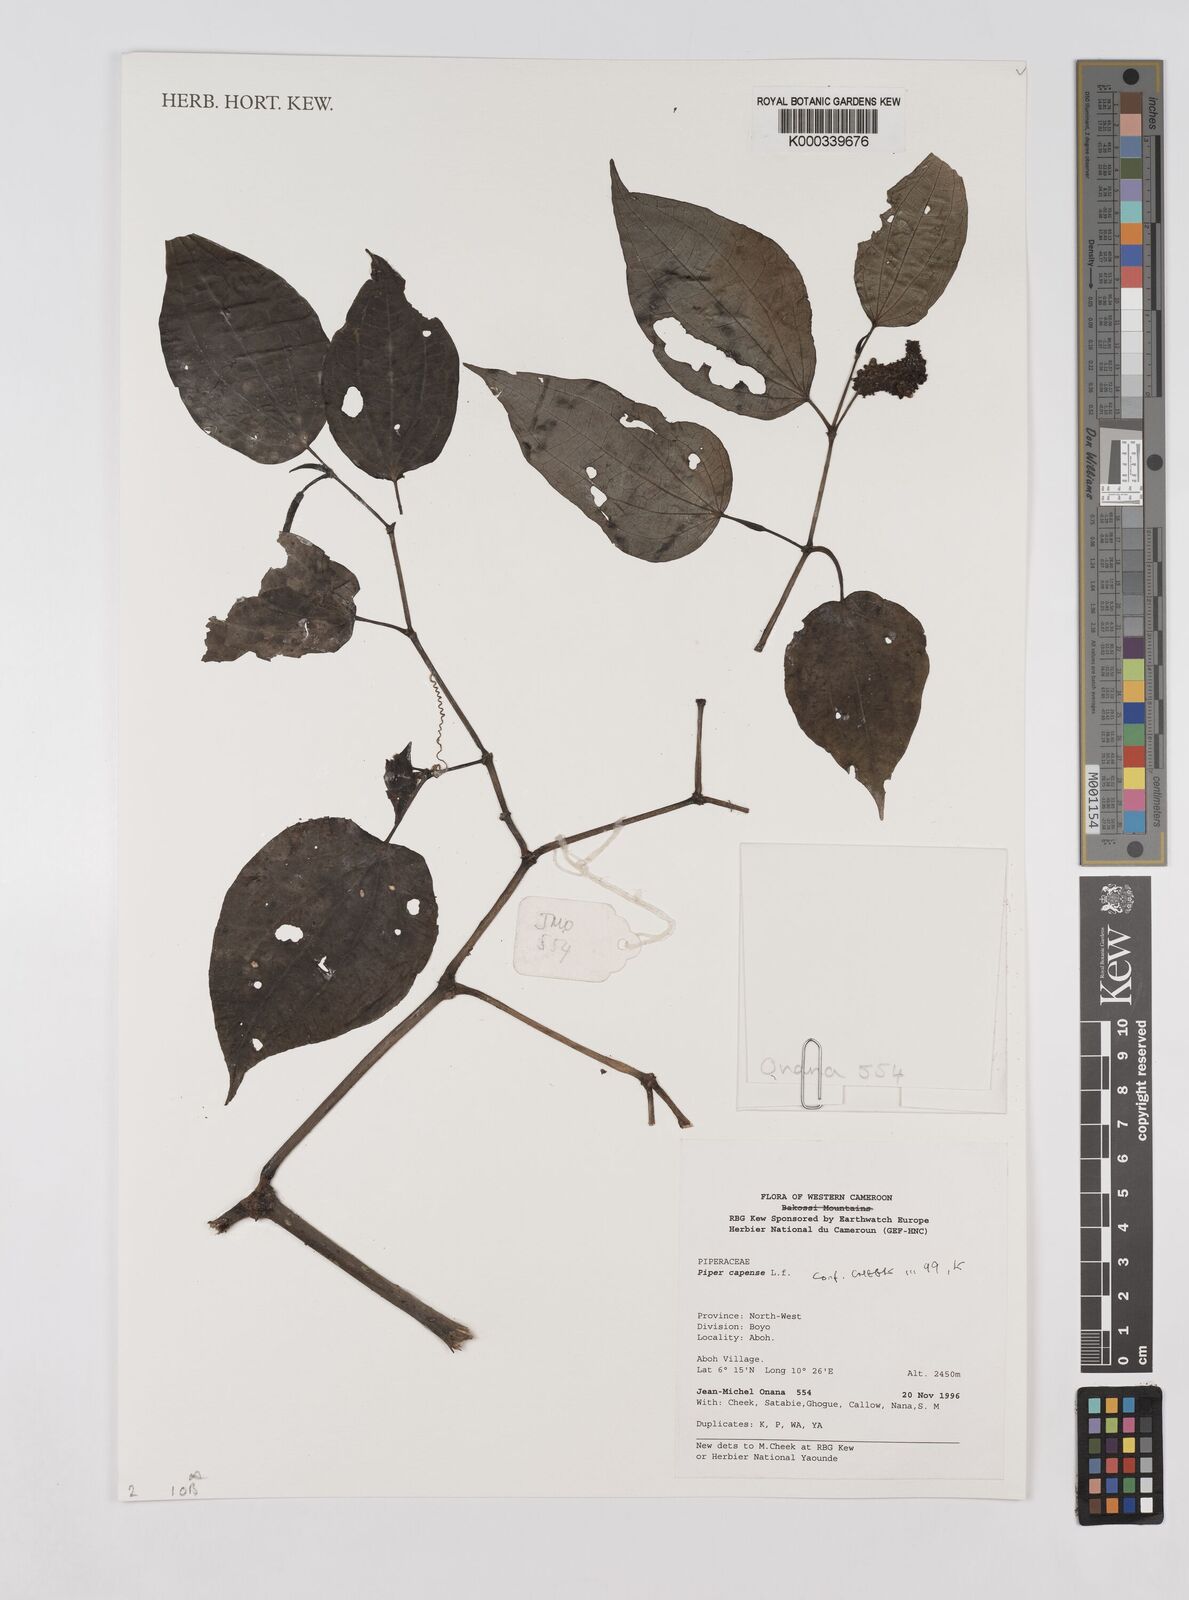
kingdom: Plantae
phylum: Tracheophyta
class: Magnoliopsida
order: Piperales
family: Piperaceae
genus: Piper
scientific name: Piper capense
